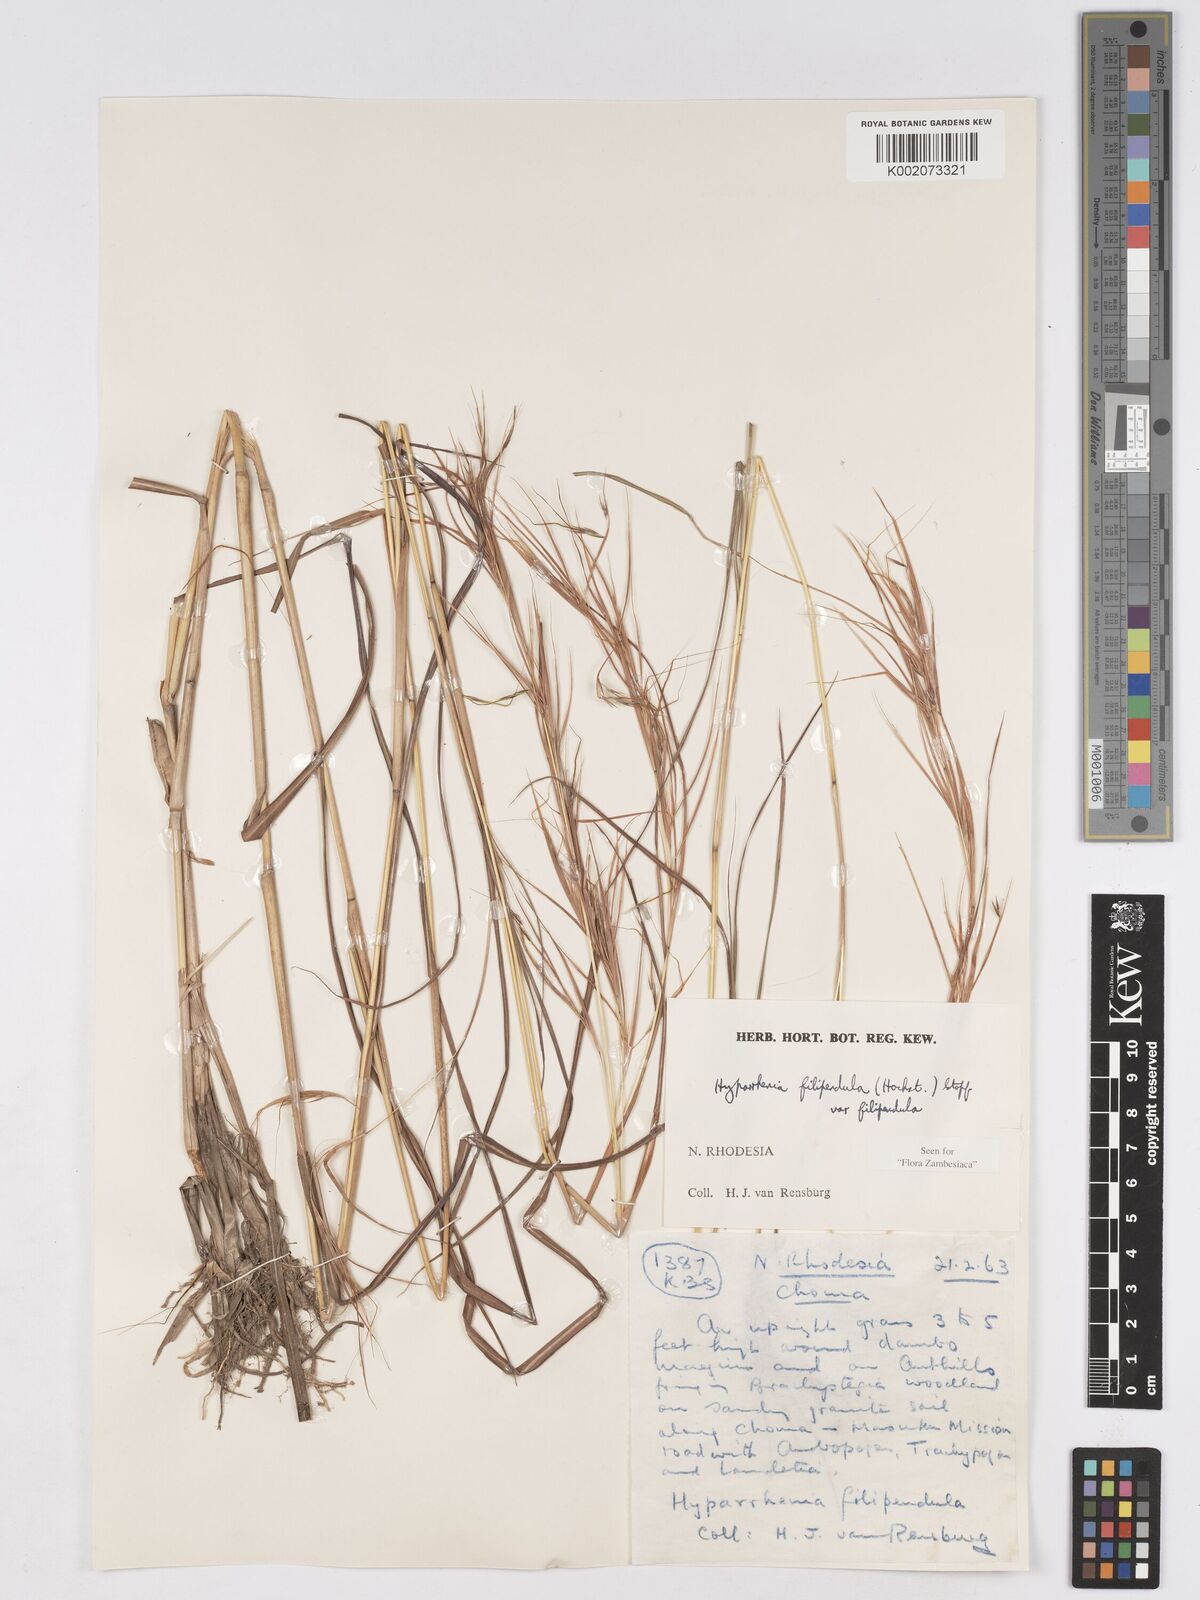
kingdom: Plantae
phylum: Tracheophyta
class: Liliopsida
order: Poales
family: Poaceae
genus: Hyparrhenia
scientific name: Hyparrhenia filipendula
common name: Tambookie grass
